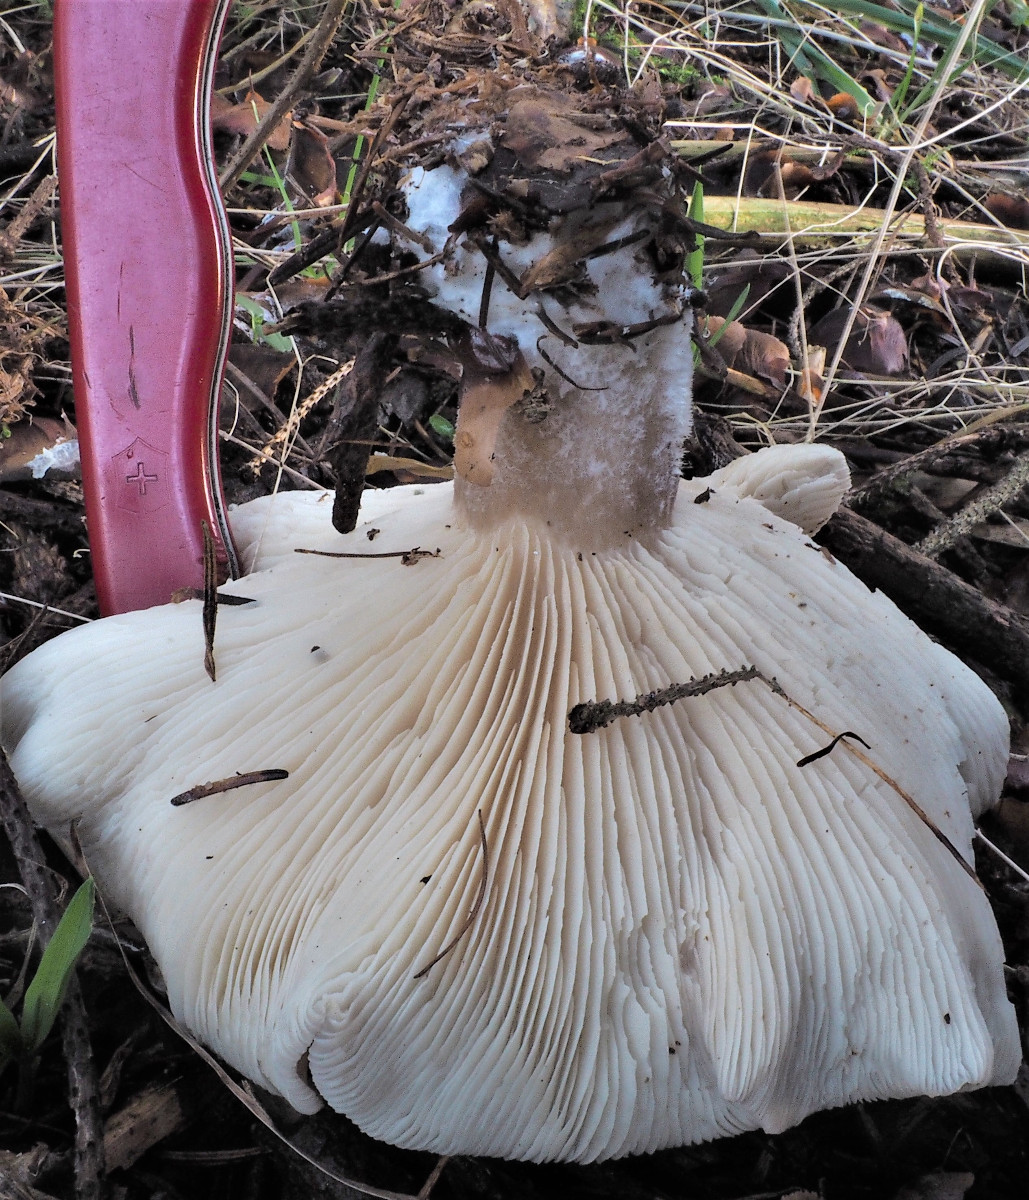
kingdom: Fungi
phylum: Basidiomycota
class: Agaricomycetes
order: Agaricales
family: Tricholomataceae
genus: Clitocybe
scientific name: Clitocybe nebularis
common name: tåge-tragthat
